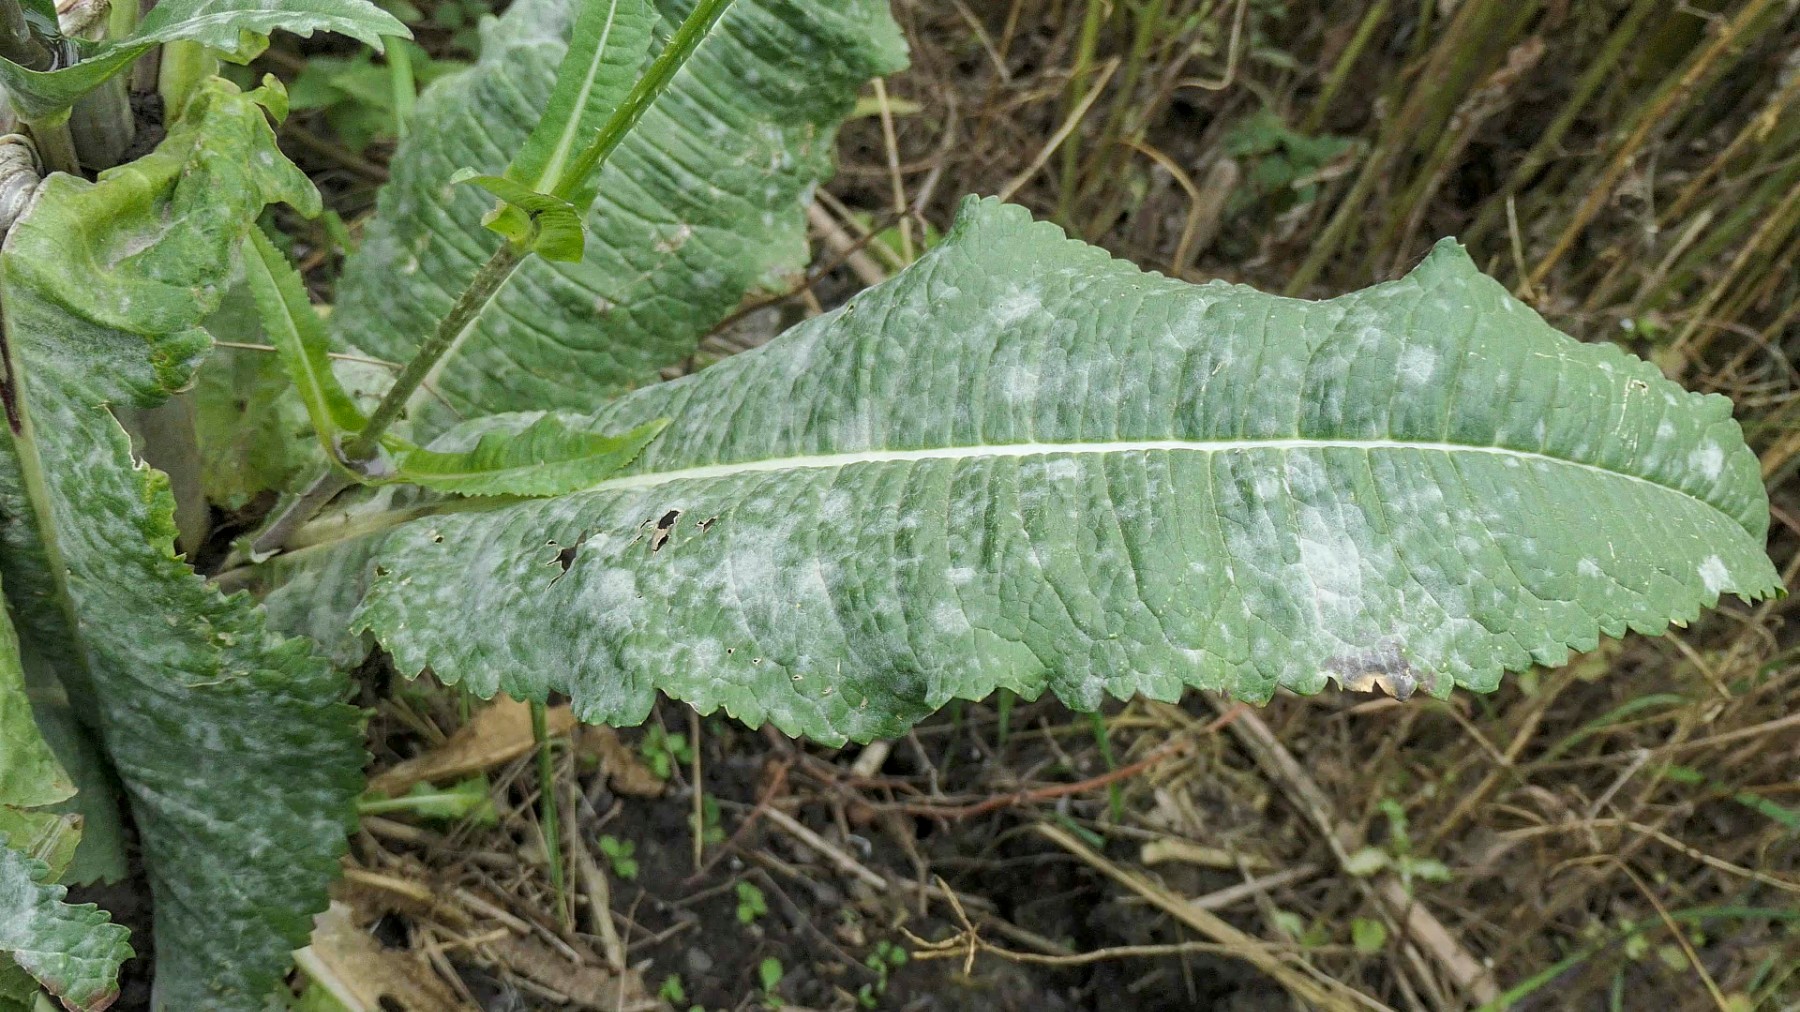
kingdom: Fungi
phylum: Ascomycota
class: Leotiomycetes
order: Helotiales
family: Erysiphaceae
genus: Erysiphe
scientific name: Erysiphe knautiae
